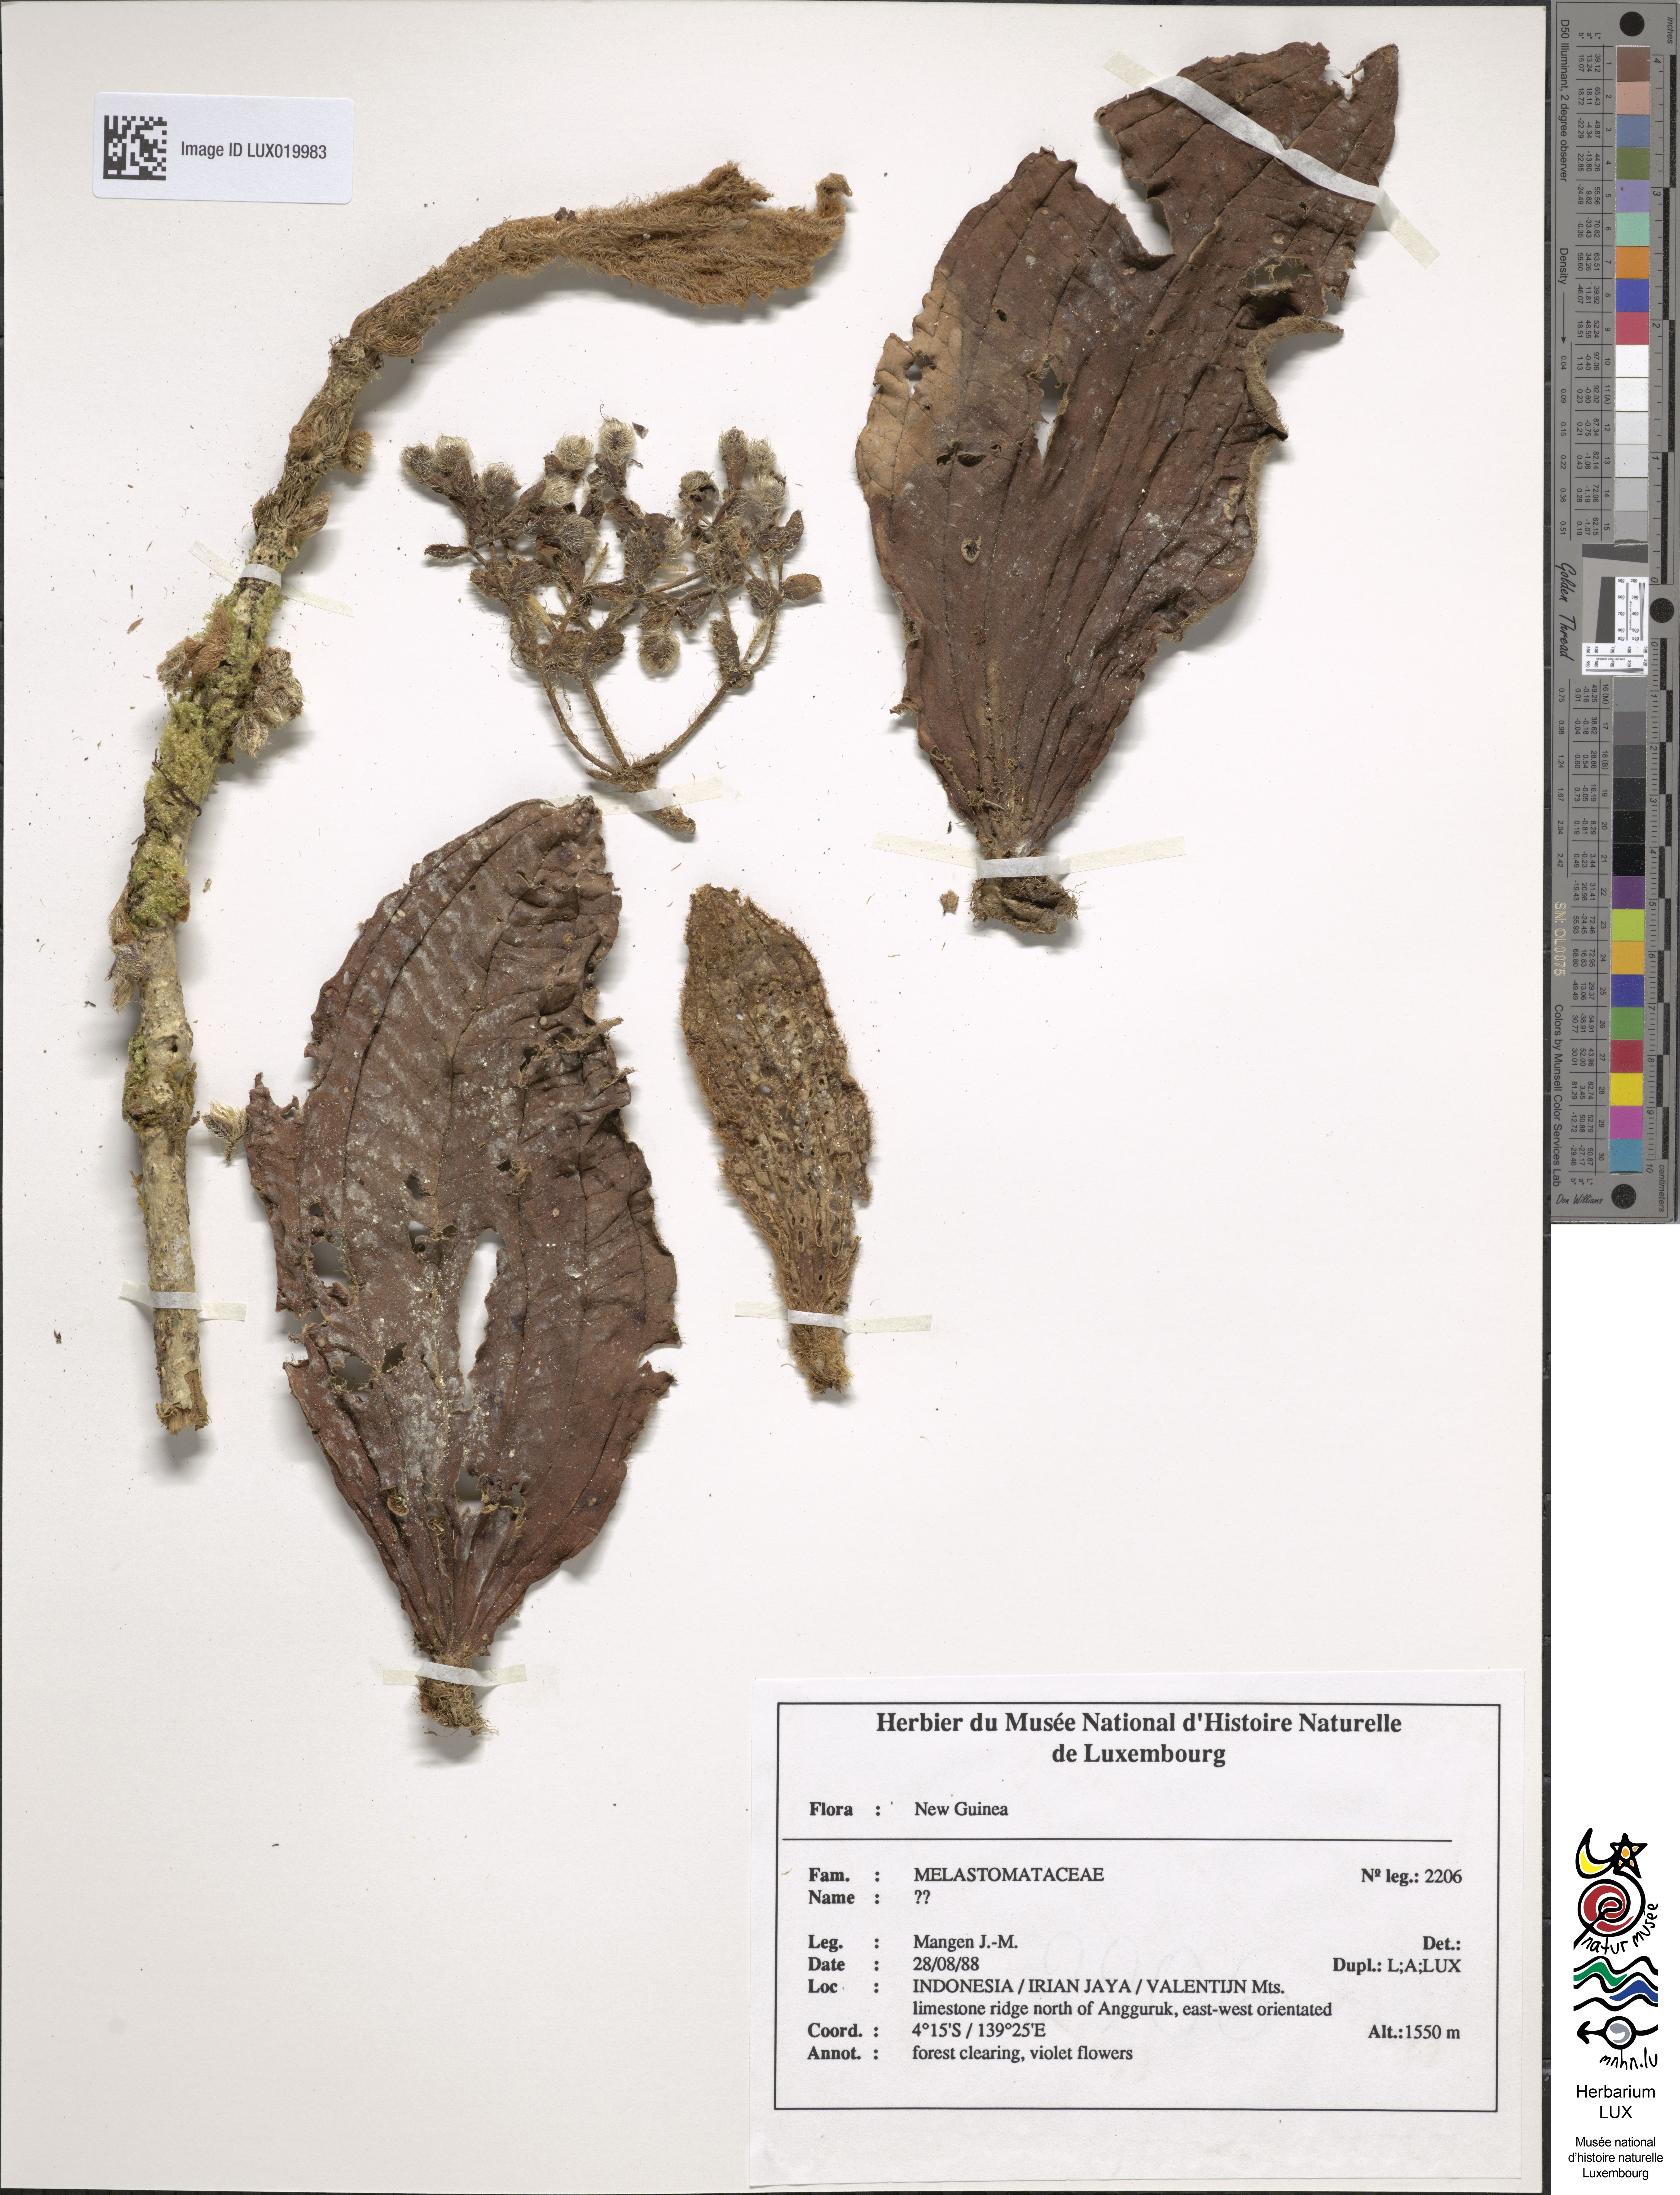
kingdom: Plantae
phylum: Tracheophyta
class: Magnoliopsida
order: Myrtales
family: Melastomataceae
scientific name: Melastomataceae
